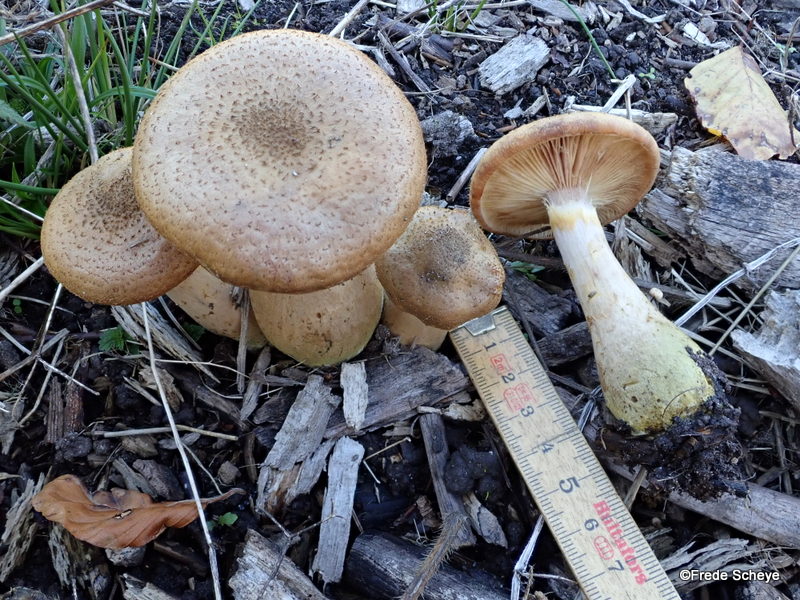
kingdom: Fungi
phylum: Basidiomycota
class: Agaricomycetes
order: Agaricales
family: Physalacriaceae
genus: Armillaria
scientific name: Armillaria lutea
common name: køllestokket honningsvamp
